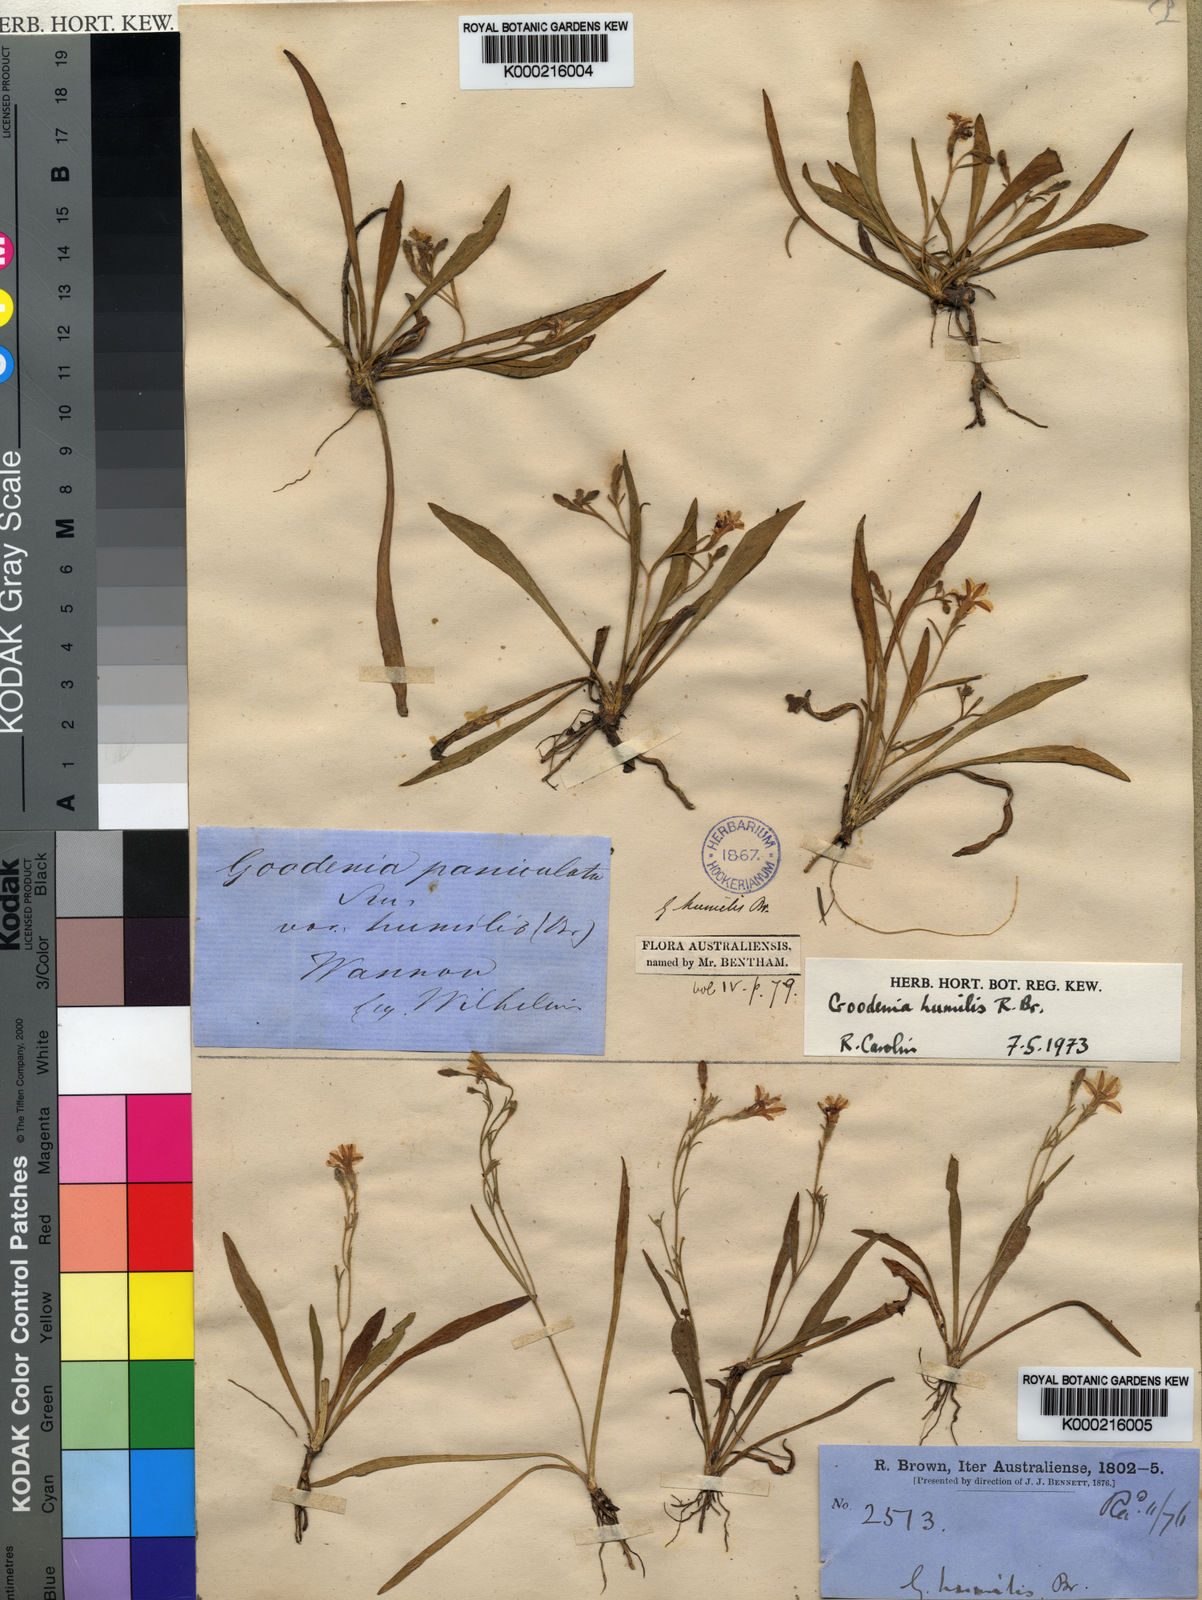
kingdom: Plantae
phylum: Tracheophyta
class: Magnoliopsida
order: Asterales
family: Goodeniaceae
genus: Goodenia
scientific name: Goodenia humilis
